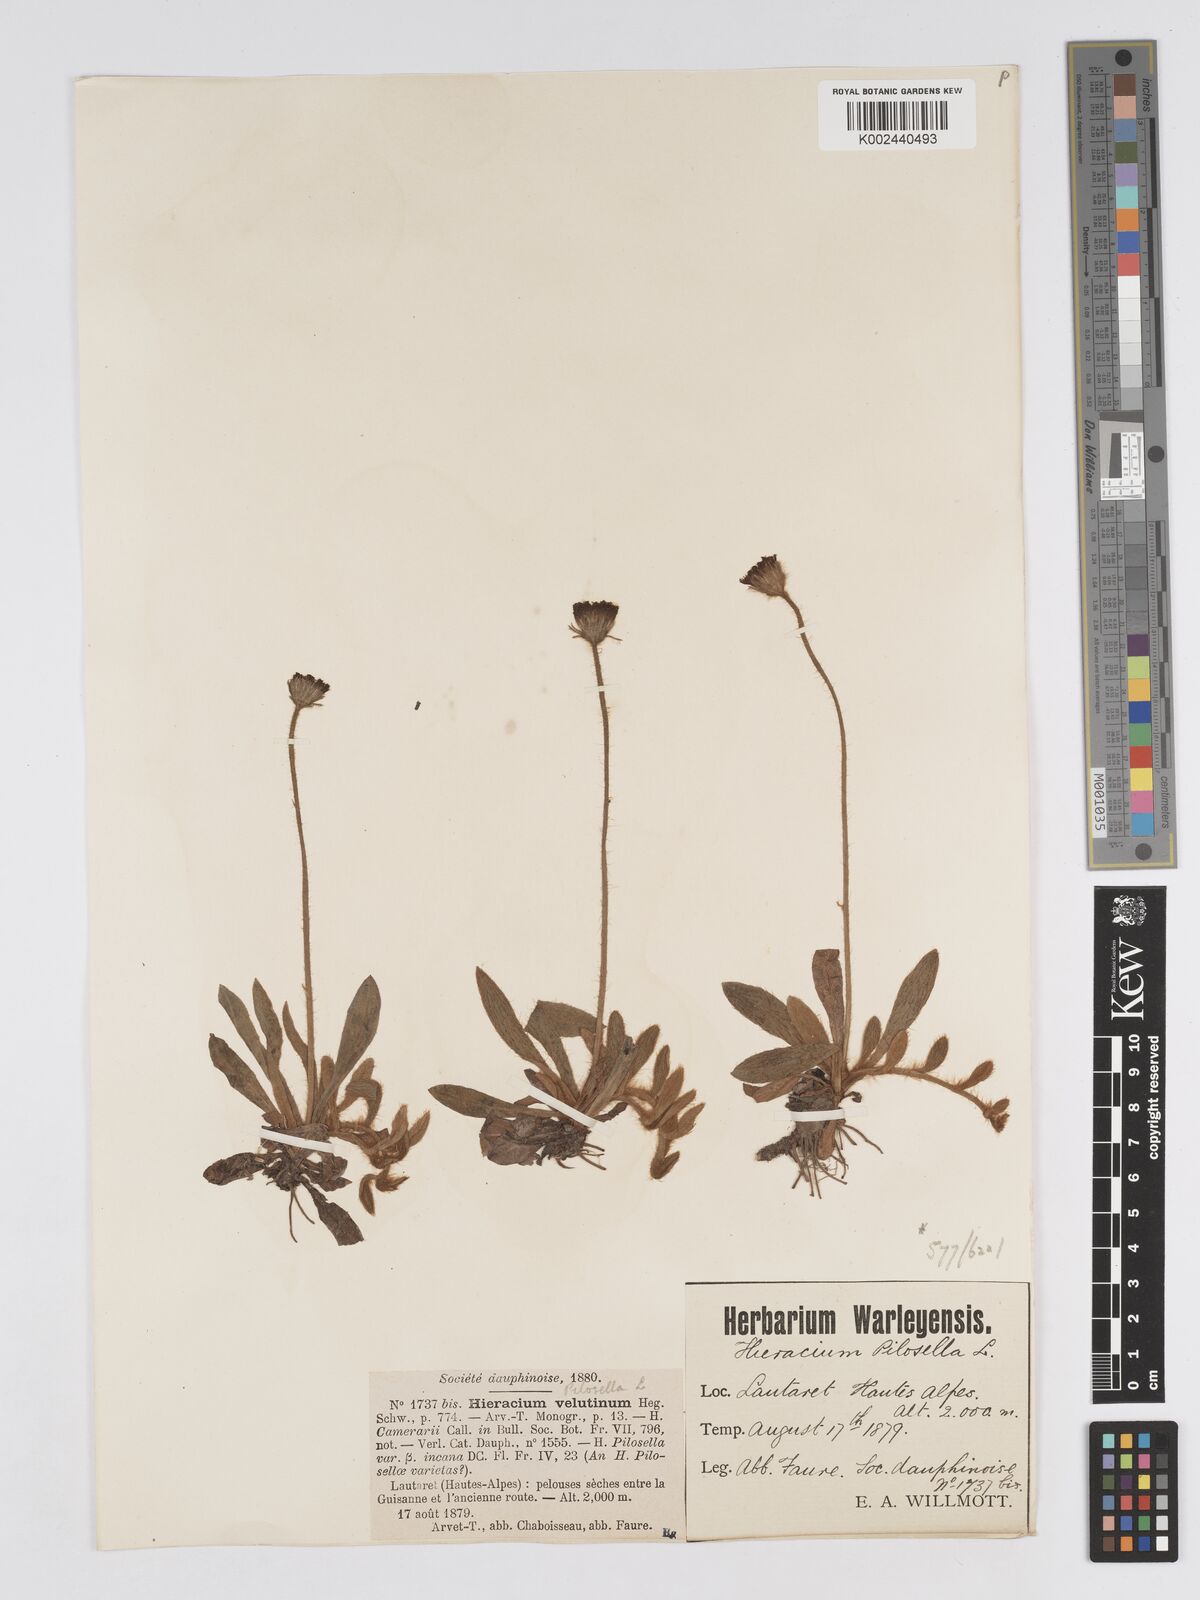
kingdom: Plantae
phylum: Tracheophyta
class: Magnoliopsida
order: Asterales
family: Asteraceae
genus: Pilosella
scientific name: Pilosella velutina
